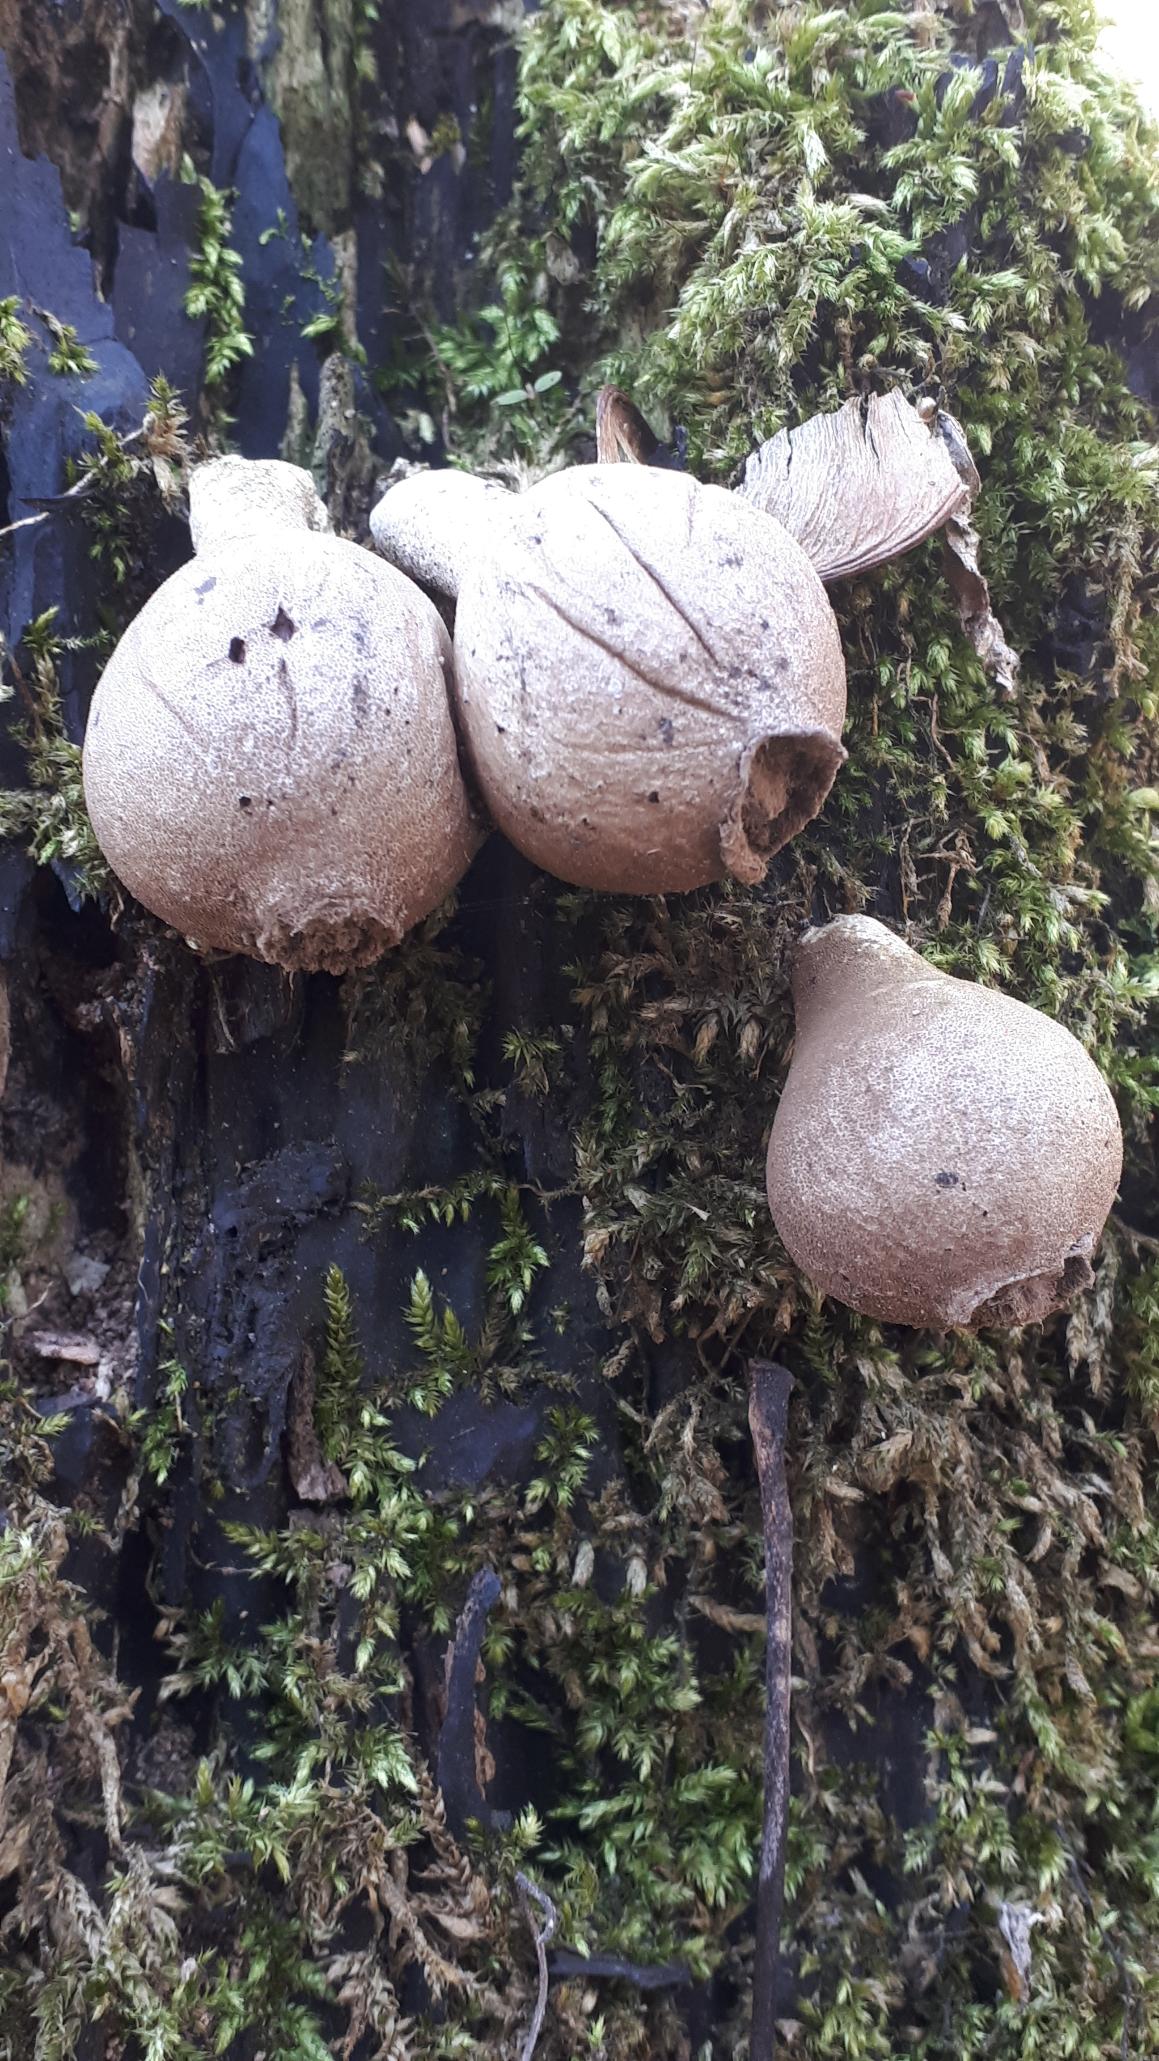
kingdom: Fungi
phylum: Basidiomycota
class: Agaricomycetes
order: Agaricales
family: Lycoperdaceae
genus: Apioperdon
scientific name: Apioperdon pyriforme
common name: Pære-støvbold
